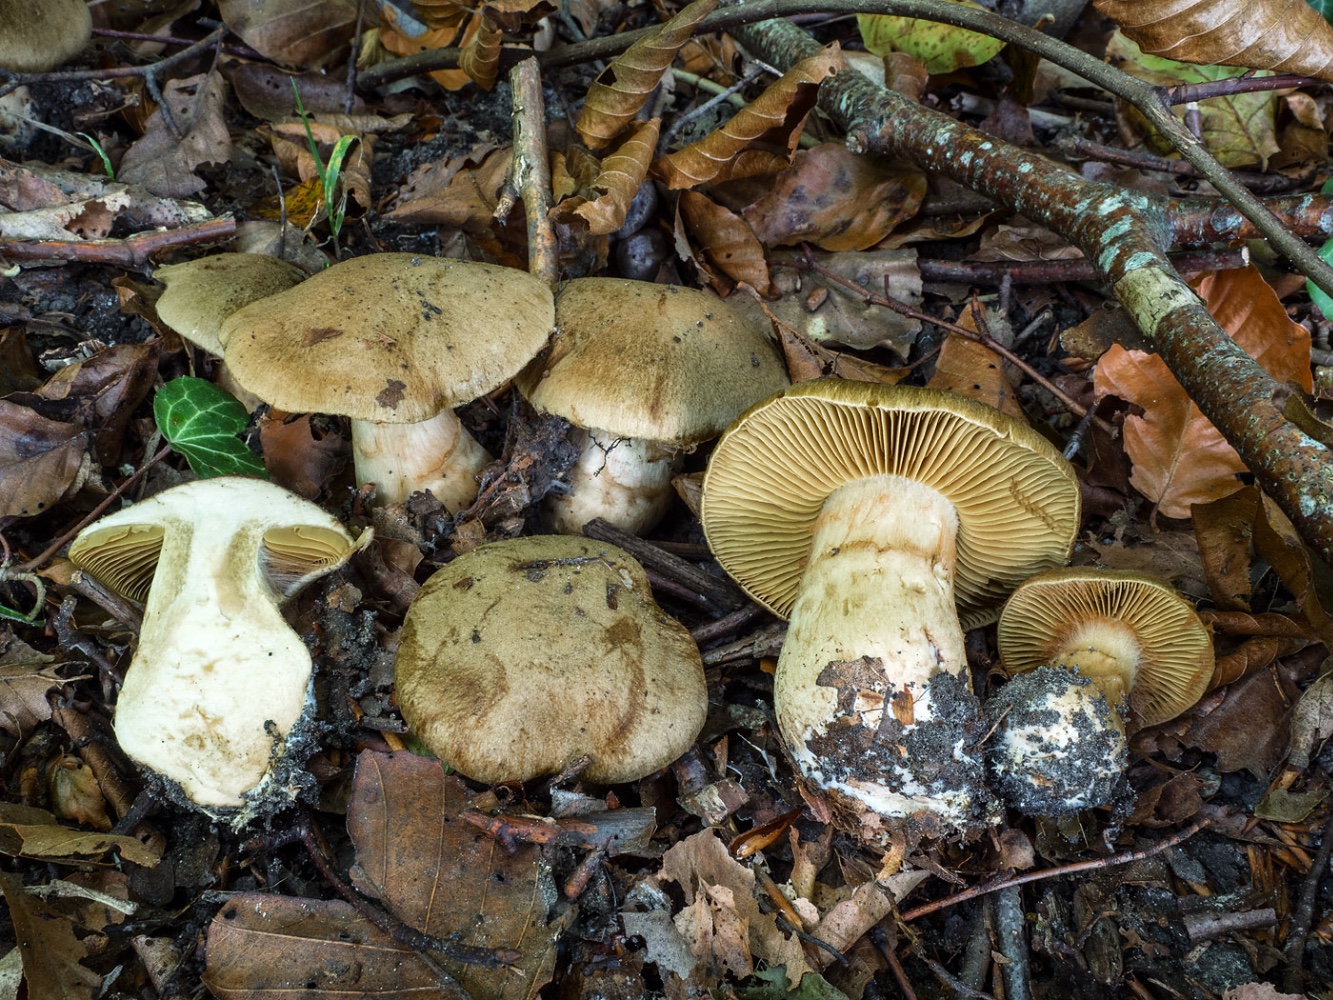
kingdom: Fungi
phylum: Basidiomycota
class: Agaricomycetes
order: Agaricales
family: Cortinariaceae
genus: Cortinarius
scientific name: Cortinarius cotoneus
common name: ulden slørhat
